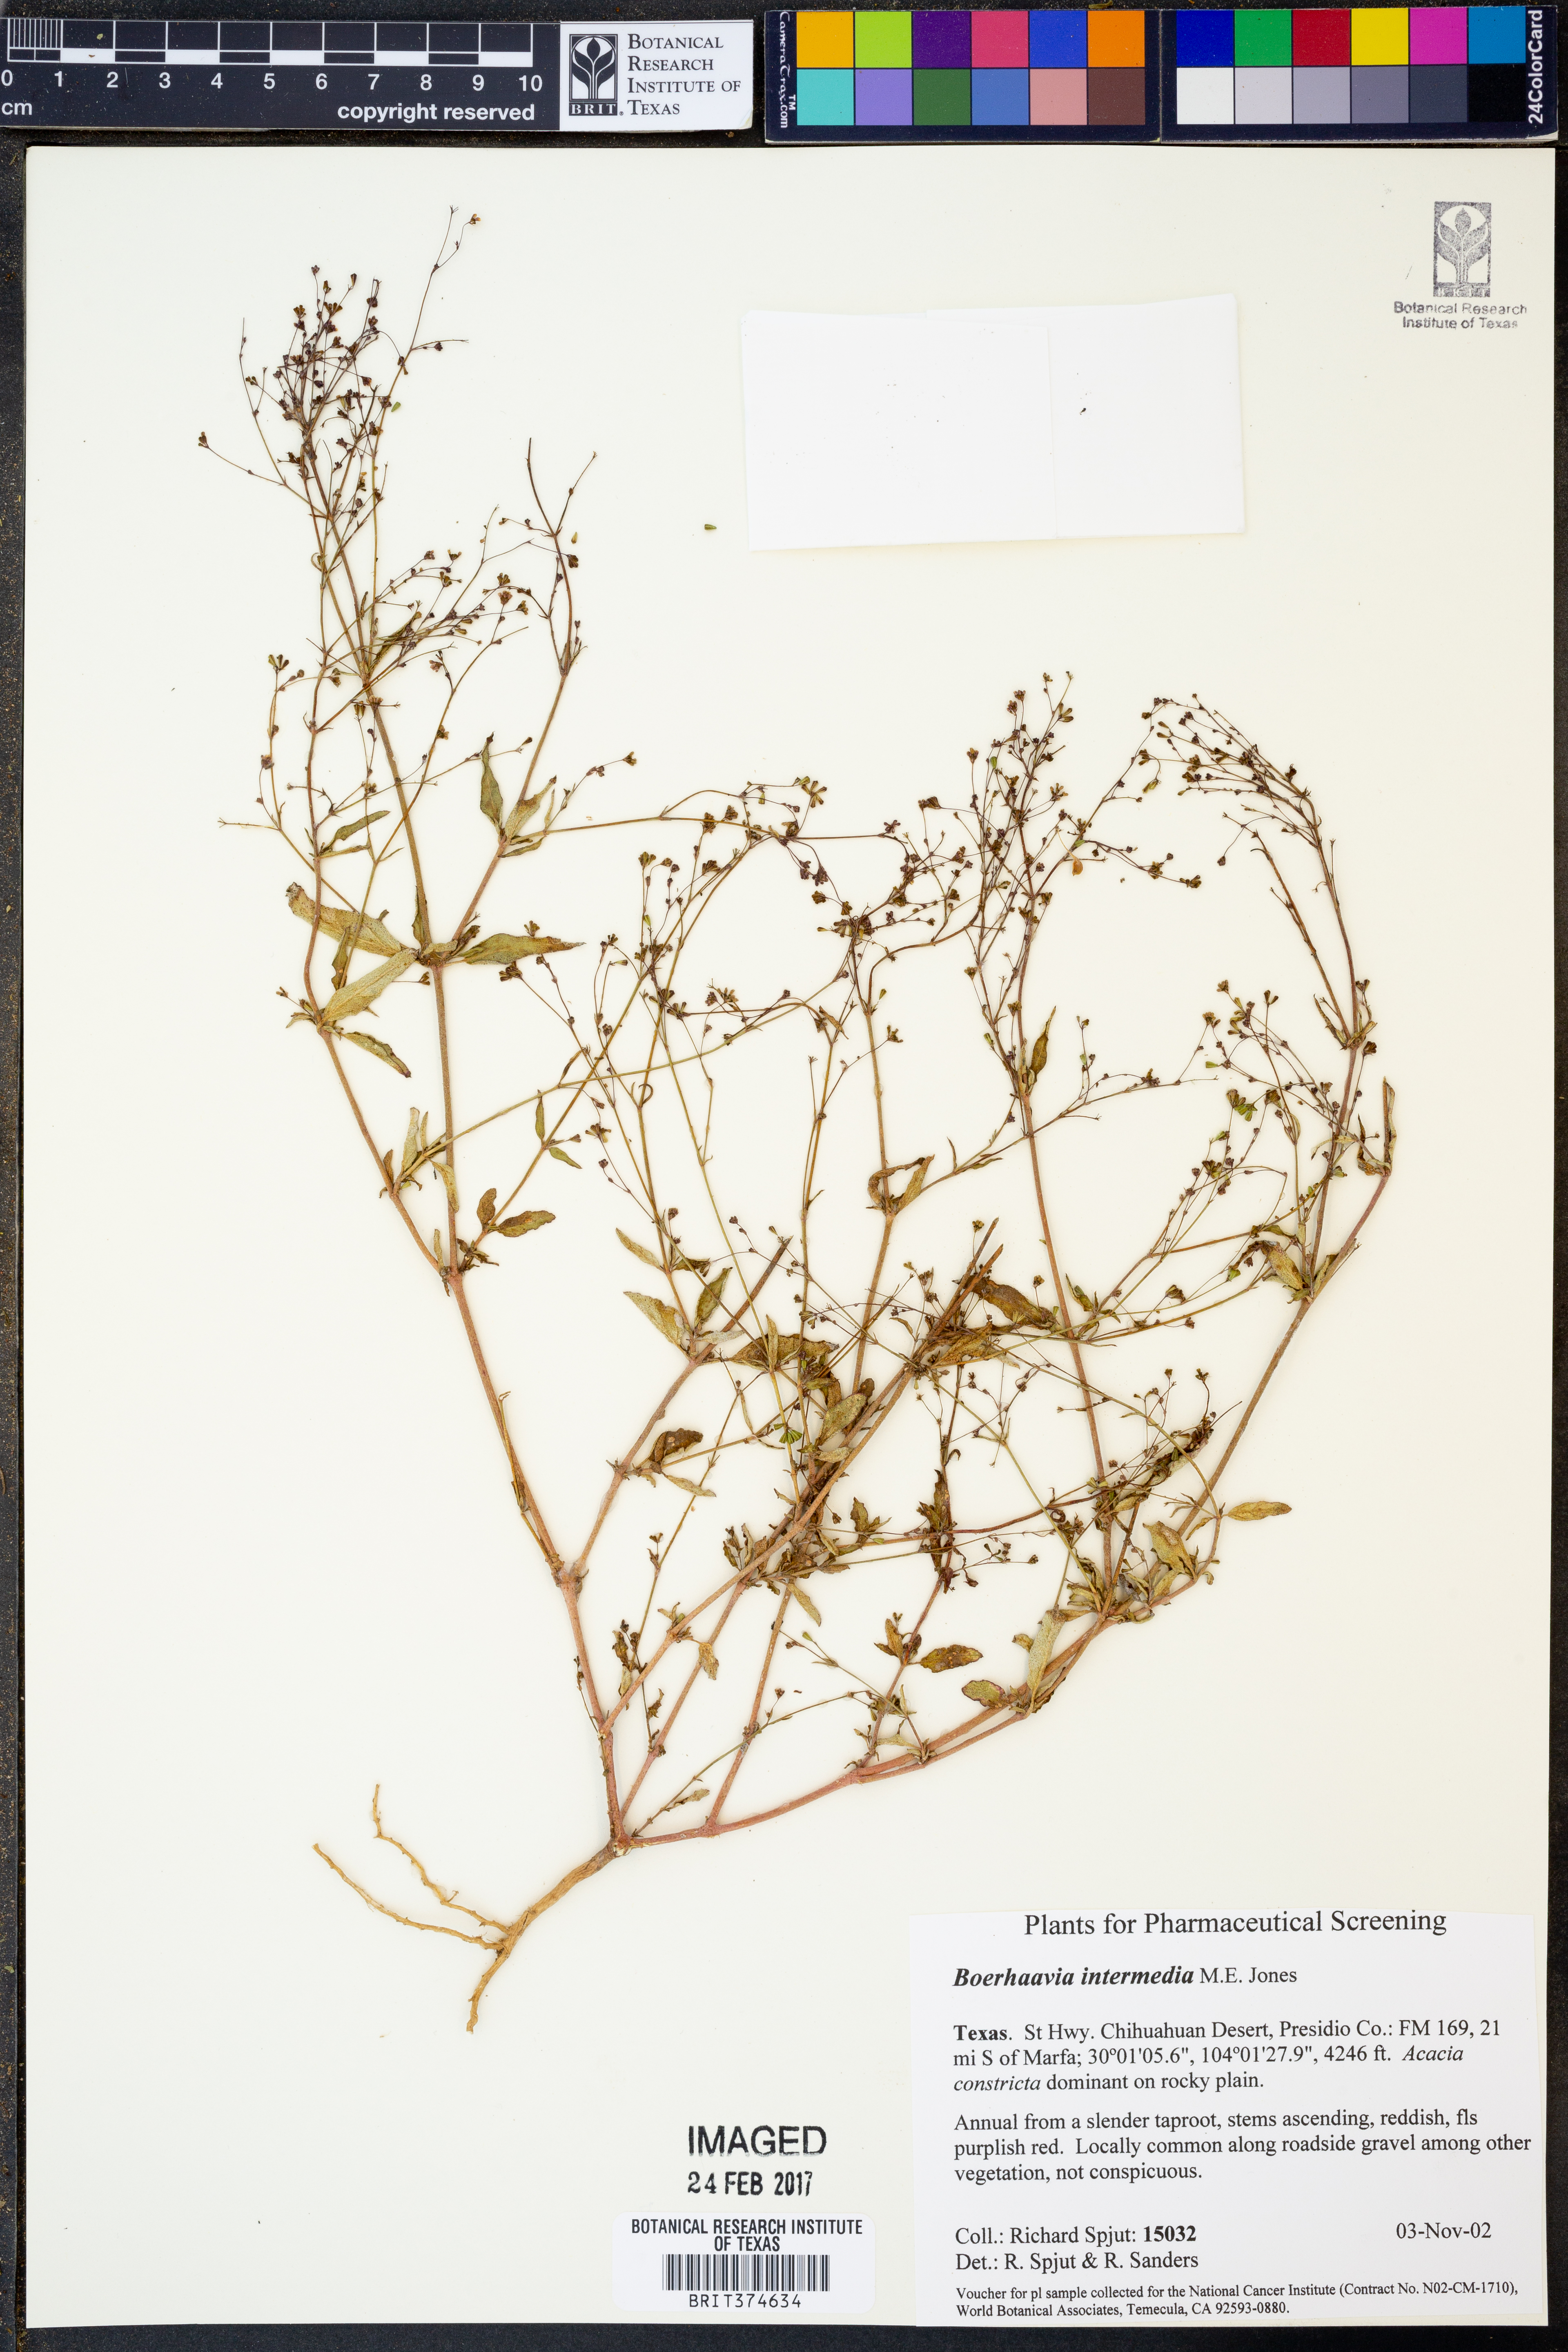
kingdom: Plantae
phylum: Tracheophyta
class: Magnoliopsida
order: Caryophyllales
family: Nyctaginaceae
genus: Boerhavia
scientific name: Boerhavia triquetra
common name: Creeping sticky-stem
